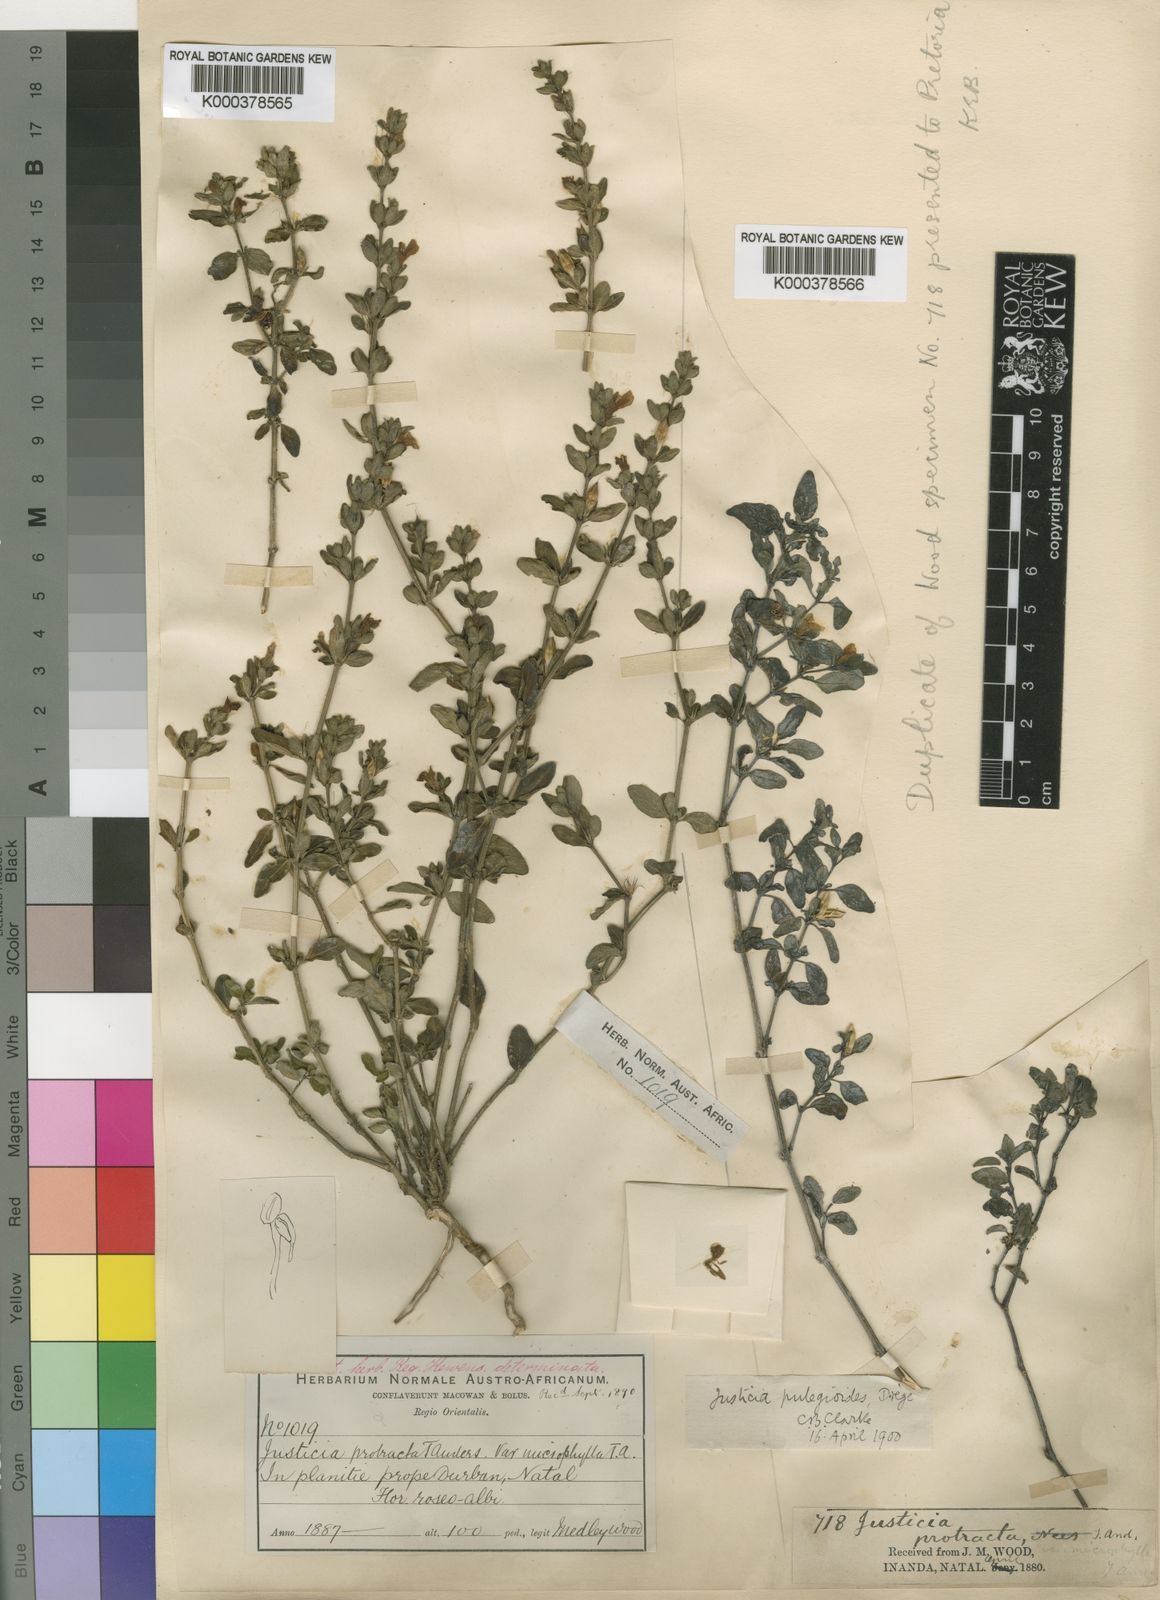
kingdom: Plantae
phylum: Tracheophyta
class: Magnoliopsida
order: Lamiales
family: Acanthaceae
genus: Justicia
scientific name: Justicia protracta
